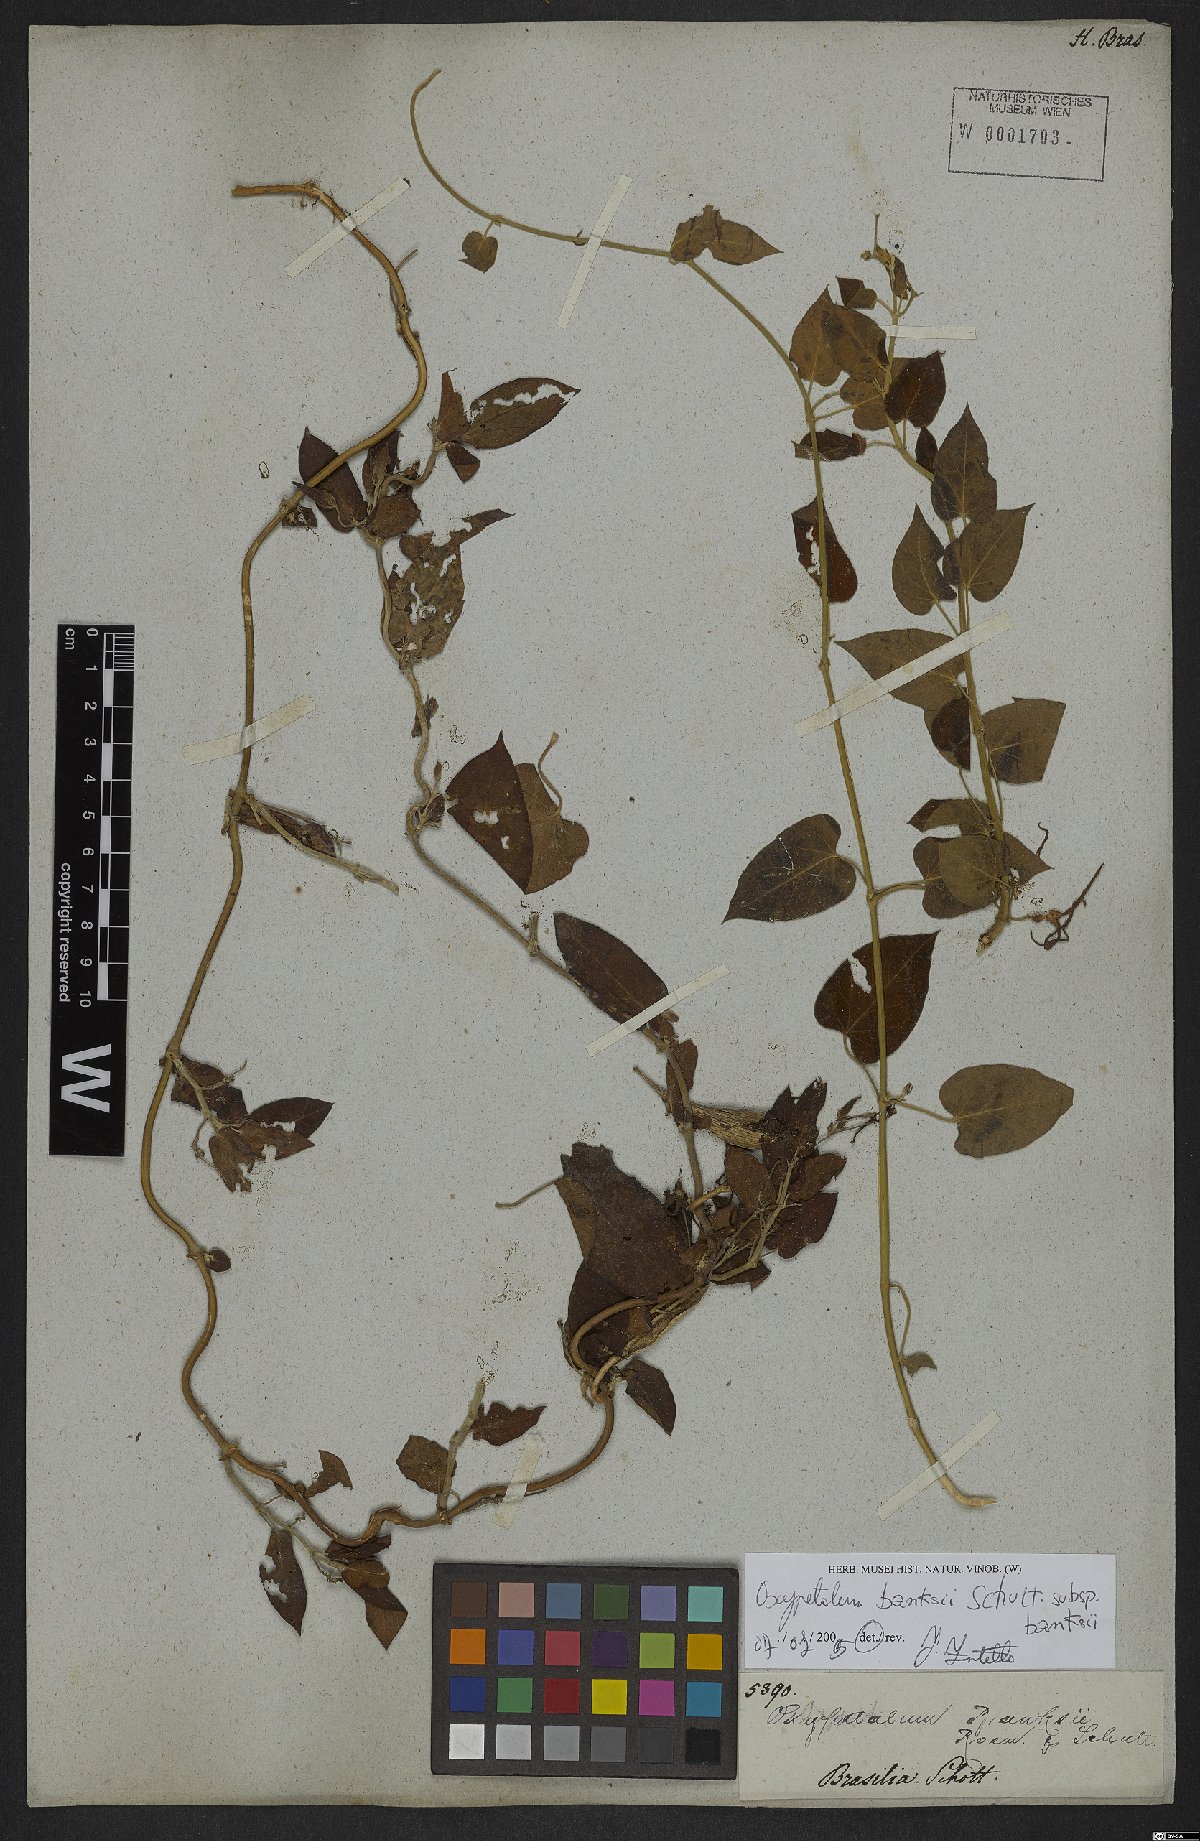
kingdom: Plantae
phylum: Tracheophyta
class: Magnoliopsida
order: Gentianales
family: Apocynaceae
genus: Oxypetalum
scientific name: Oxypetalum banksii
